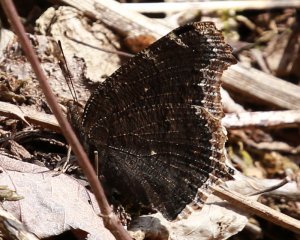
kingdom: Animalia
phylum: Arthropoda
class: Insecta
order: Lepidoptera
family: Nymphalidae
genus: Nymphalis
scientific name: Nymphalis antiopa
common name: Mourning Cloak
